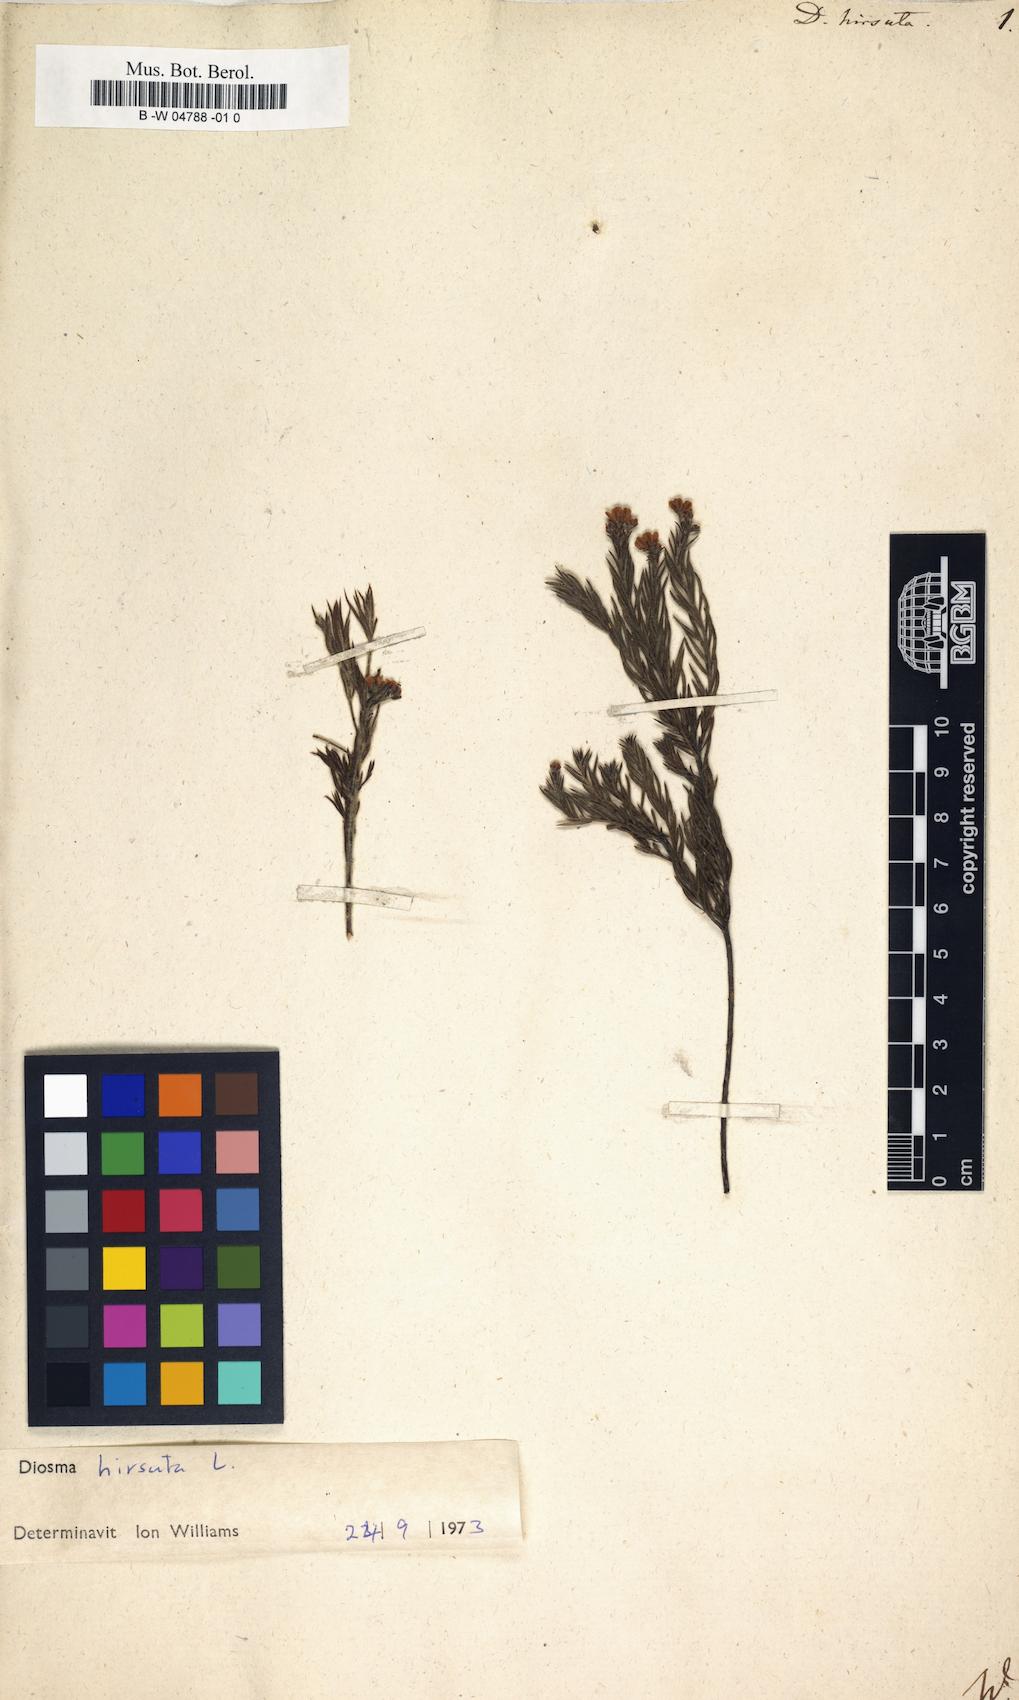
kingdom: Plantae
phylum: Tracheophyta
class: Magnoliopsida
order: Sapindales
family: Rutaceae
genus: Diosma
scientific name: Diosma hirsuta
